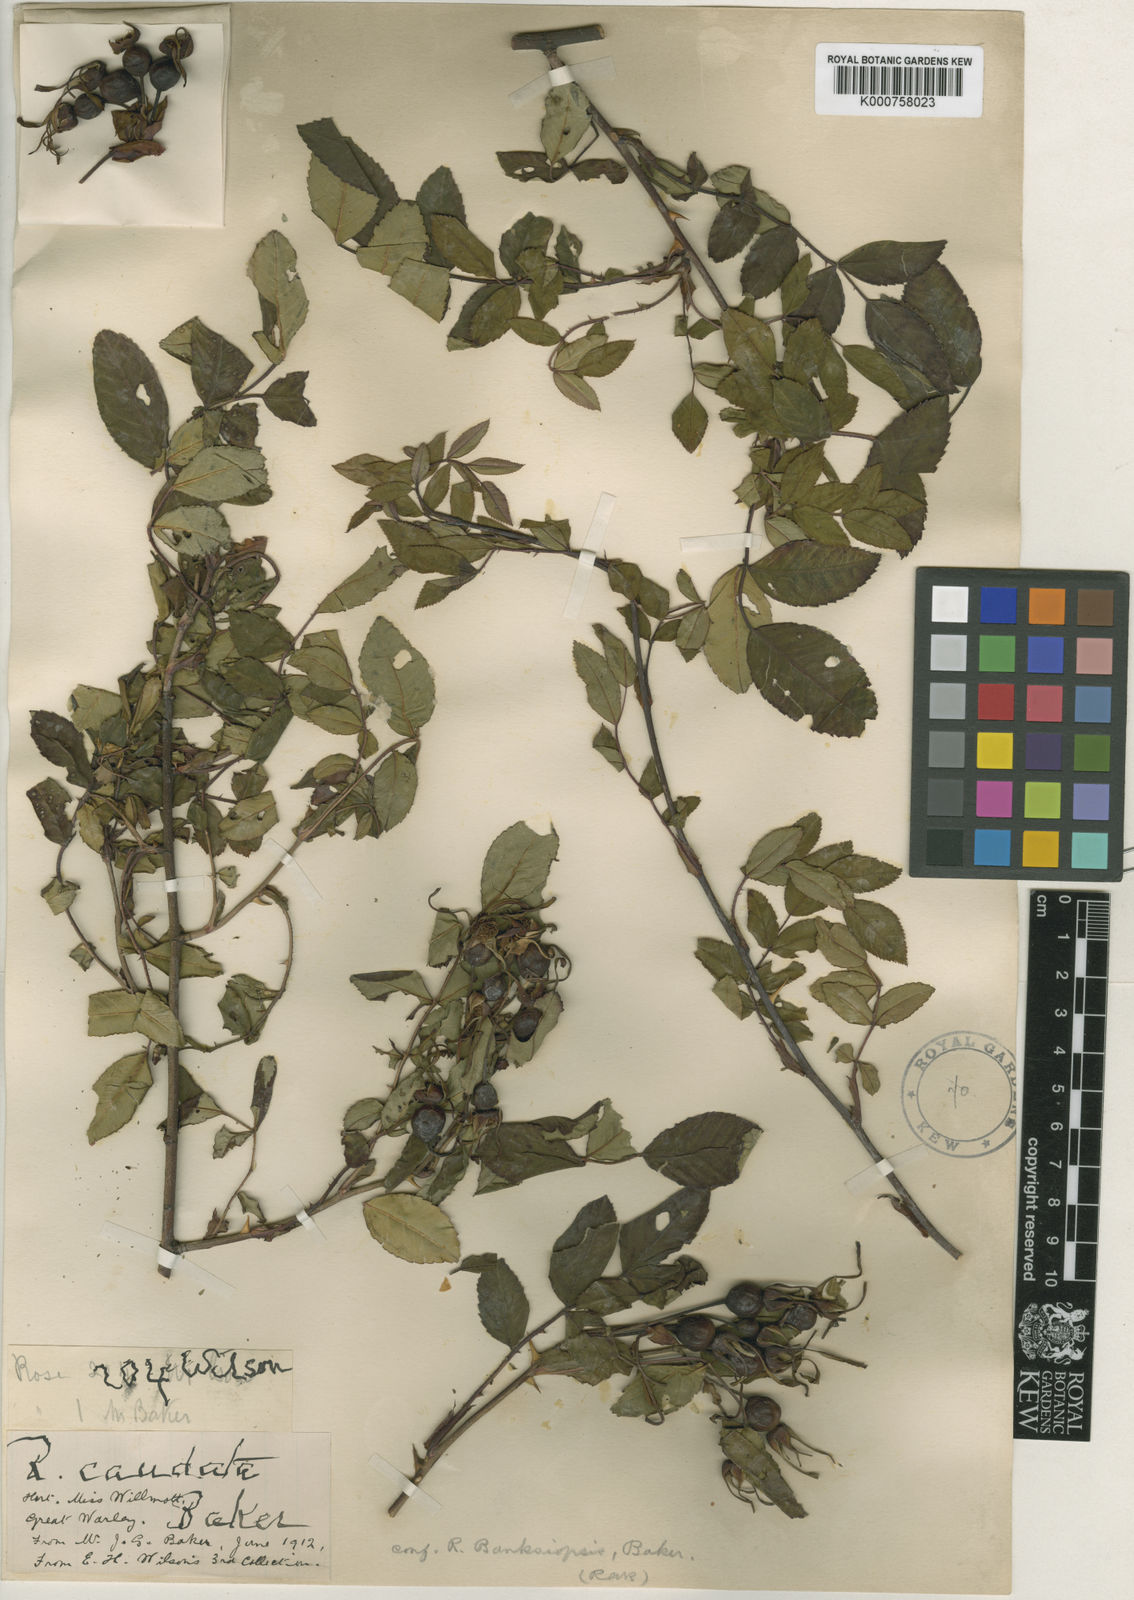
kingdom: Plantae
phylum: Tracheophyta
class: Magnoliopsida
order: Rosales
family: Rosaceae
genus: Rosa
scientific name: Rosa banksiopsis
